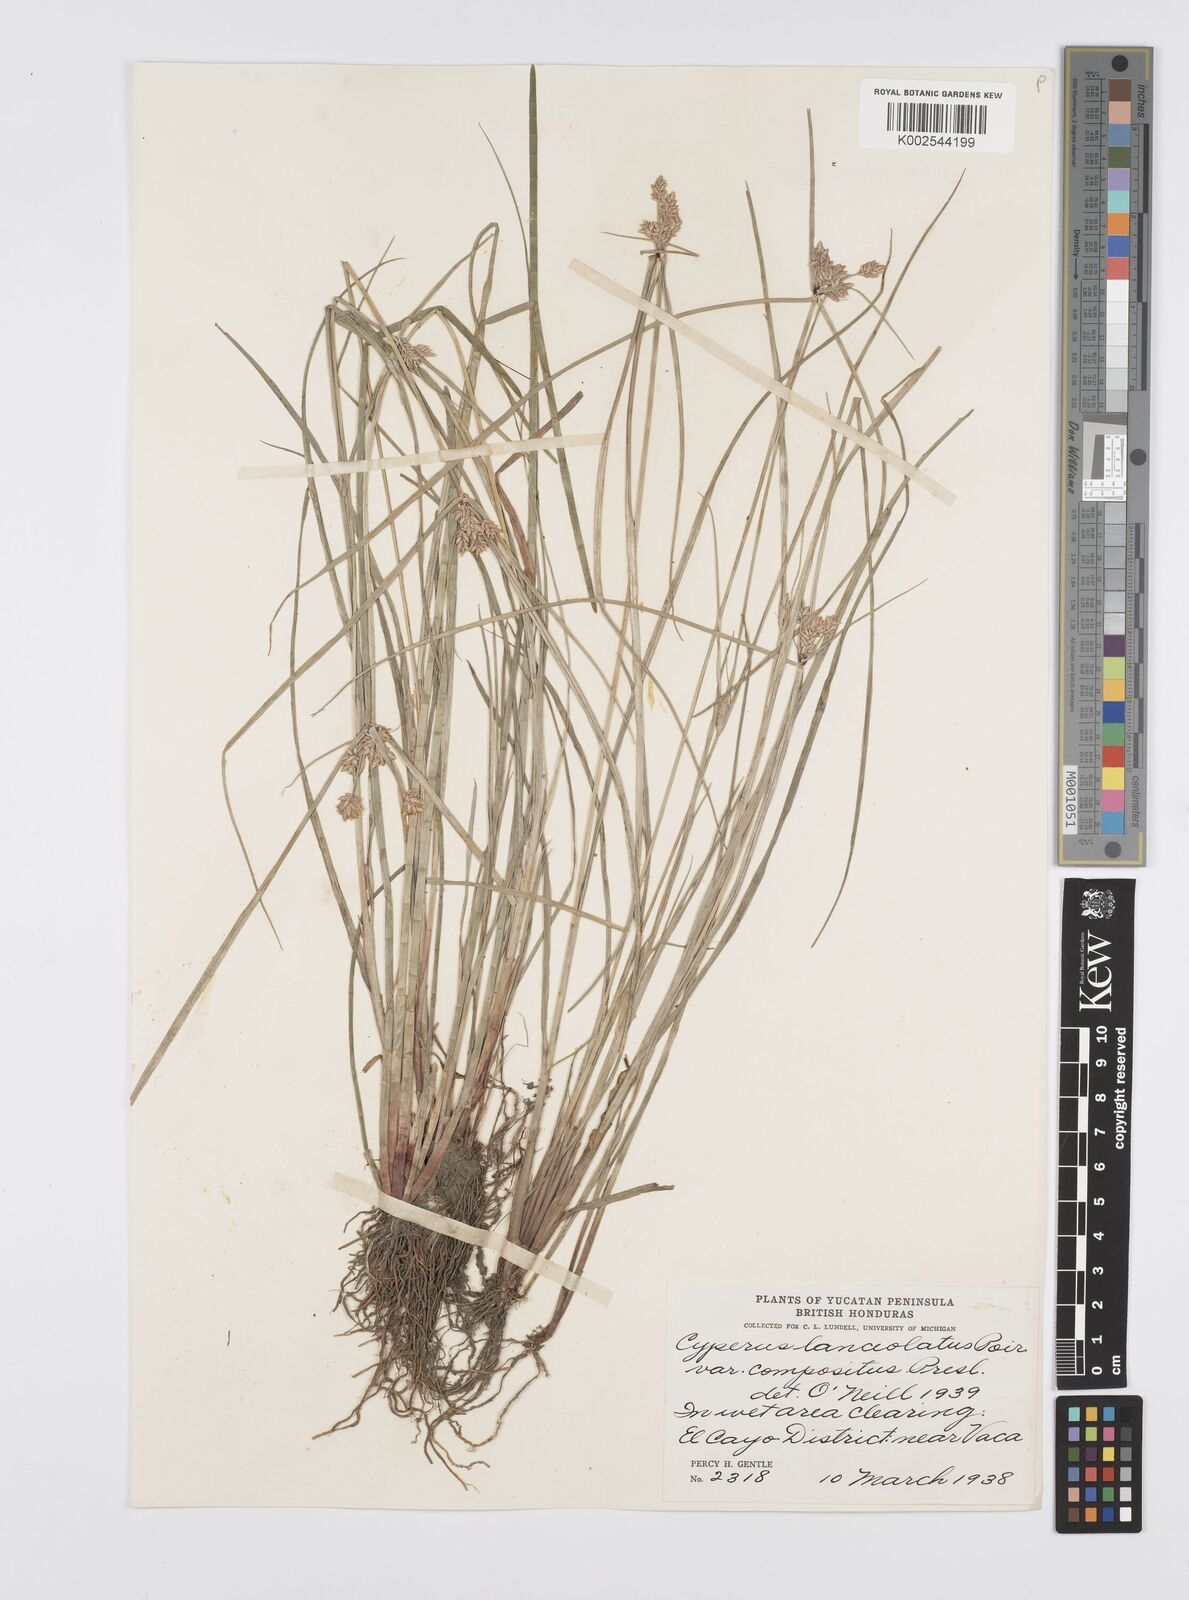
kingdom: Plantae
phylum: Tracheophyta
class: Liliopsida
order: Poales
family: Cyperaceae
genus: Cyperus
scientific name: Cyperus
